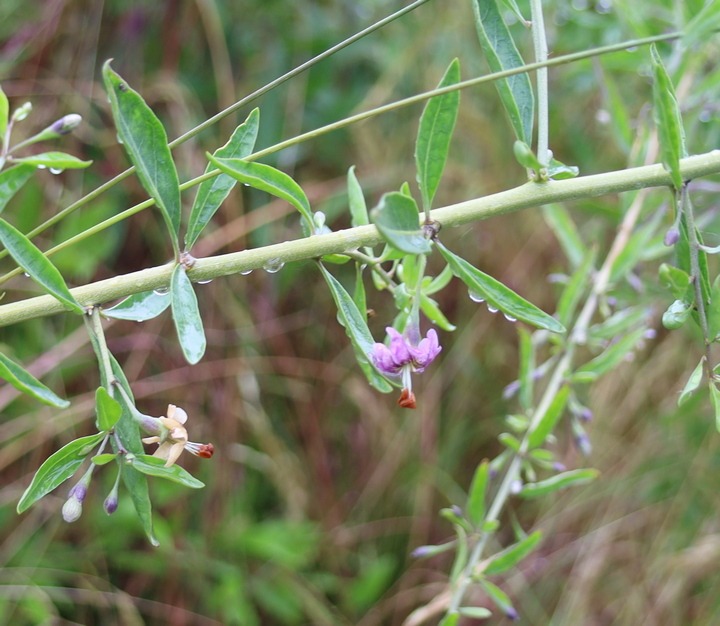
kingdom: Plantae
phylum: Tracheophyta
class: Magnoliopsida
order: Solanales
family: Solanaceae
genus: Lycium
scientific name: Lycium barbarum
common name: Bukketorn
